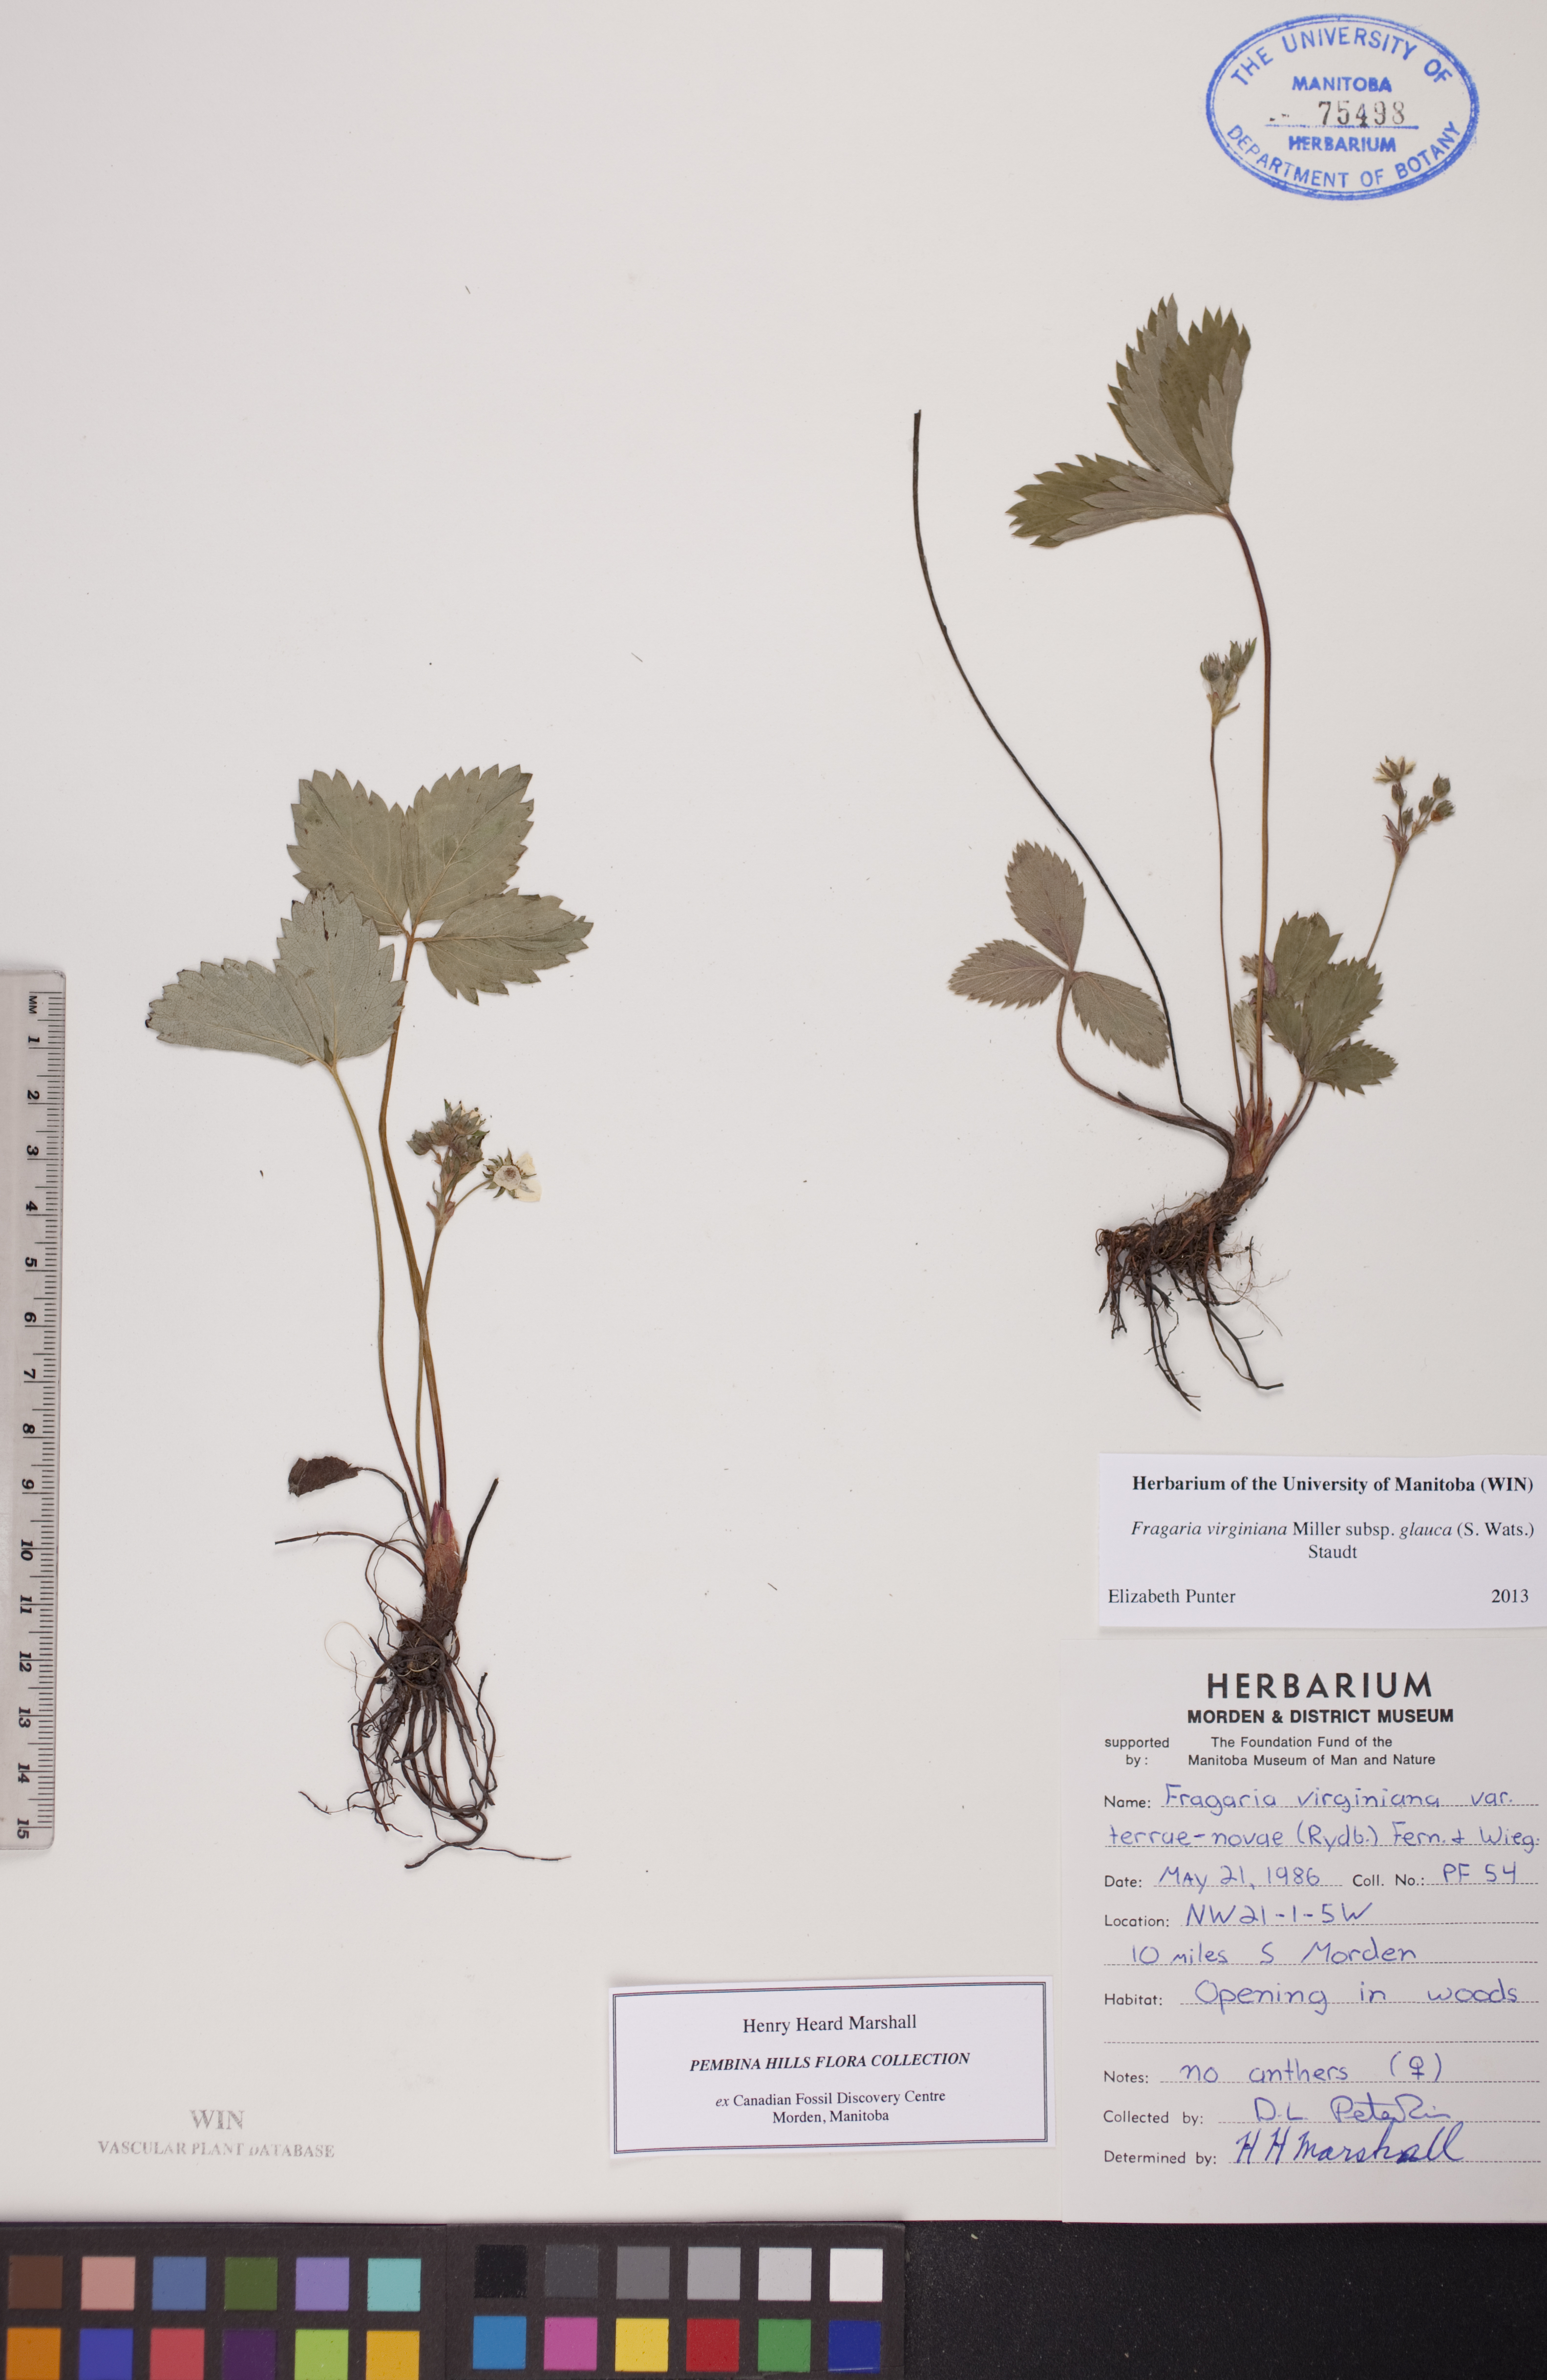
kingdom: Plantae
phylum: Tracheophyta
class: Magnoliopsida
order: Rosales
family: Rosaceae
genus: Fragaria
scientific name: Fragaria virginiana
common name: Thickleaved wild strawberry
